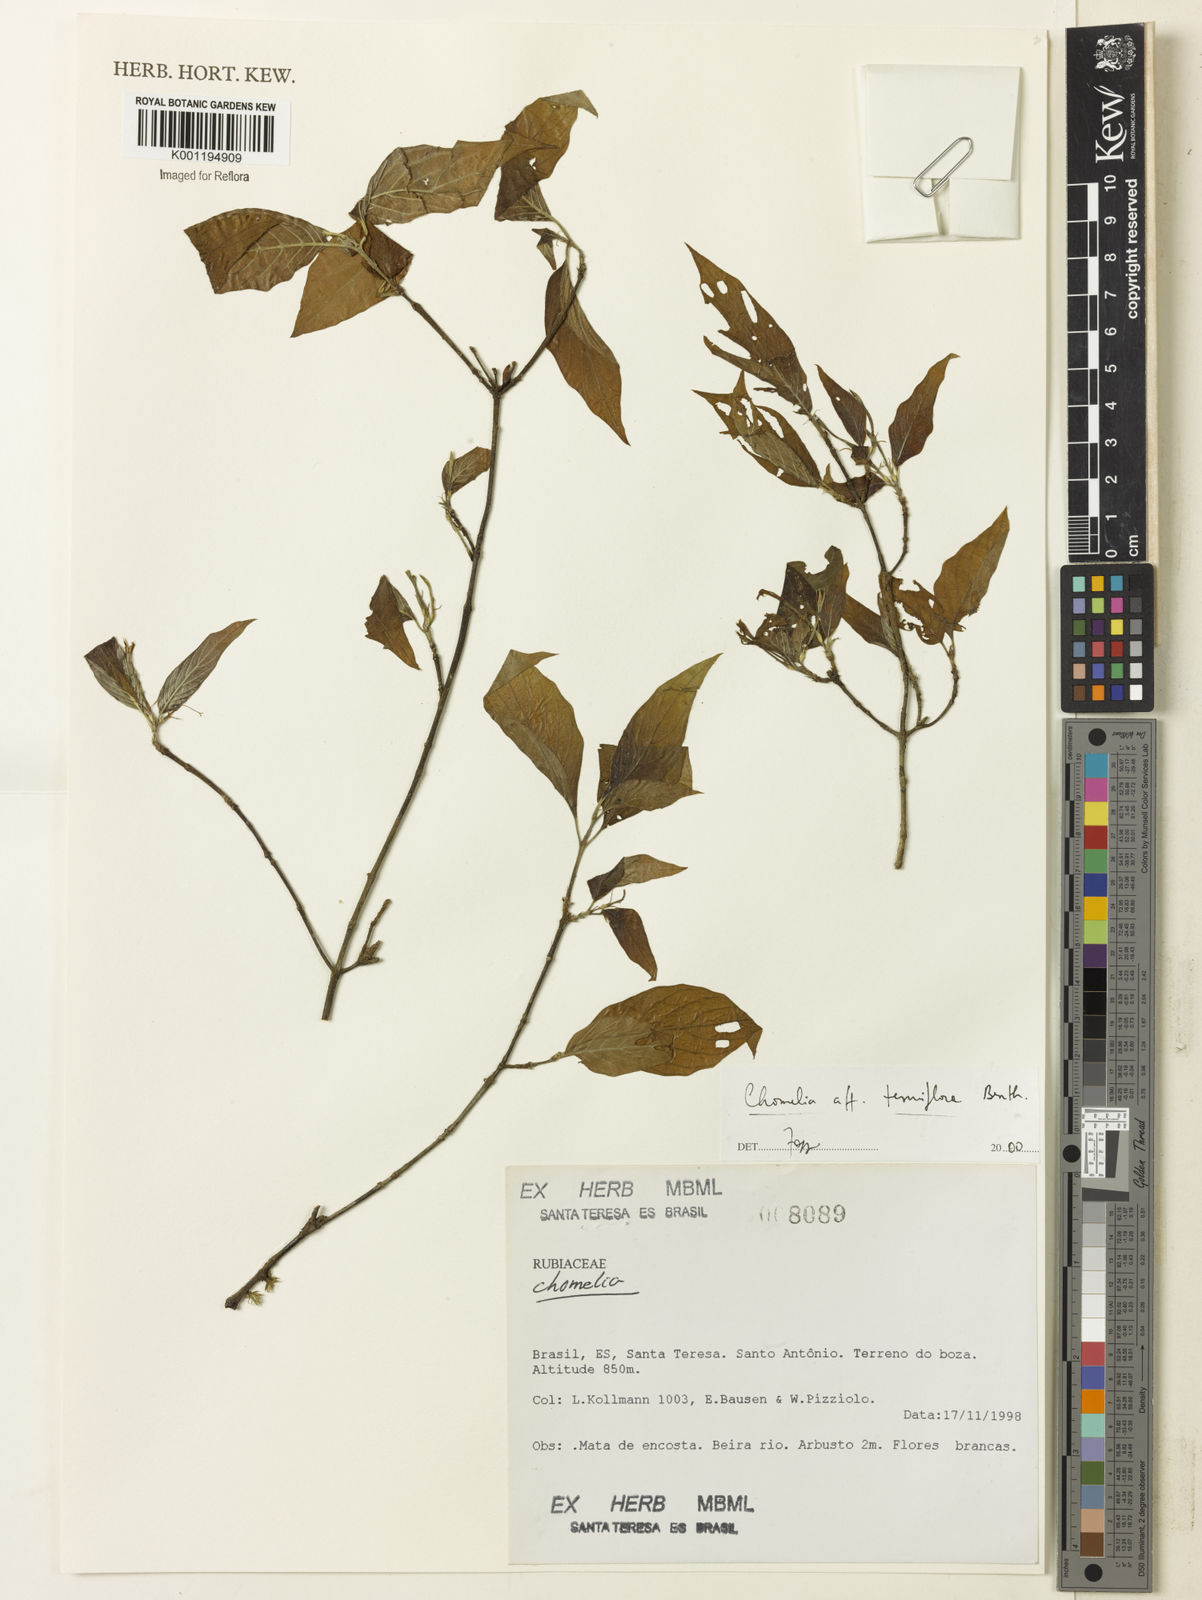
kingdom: Plantae
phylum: Tracheophyta
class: Magnoliopsida
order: Gentianales
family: Rubiaceae
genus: Chomelia
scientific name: Chomelia tenuiflora
